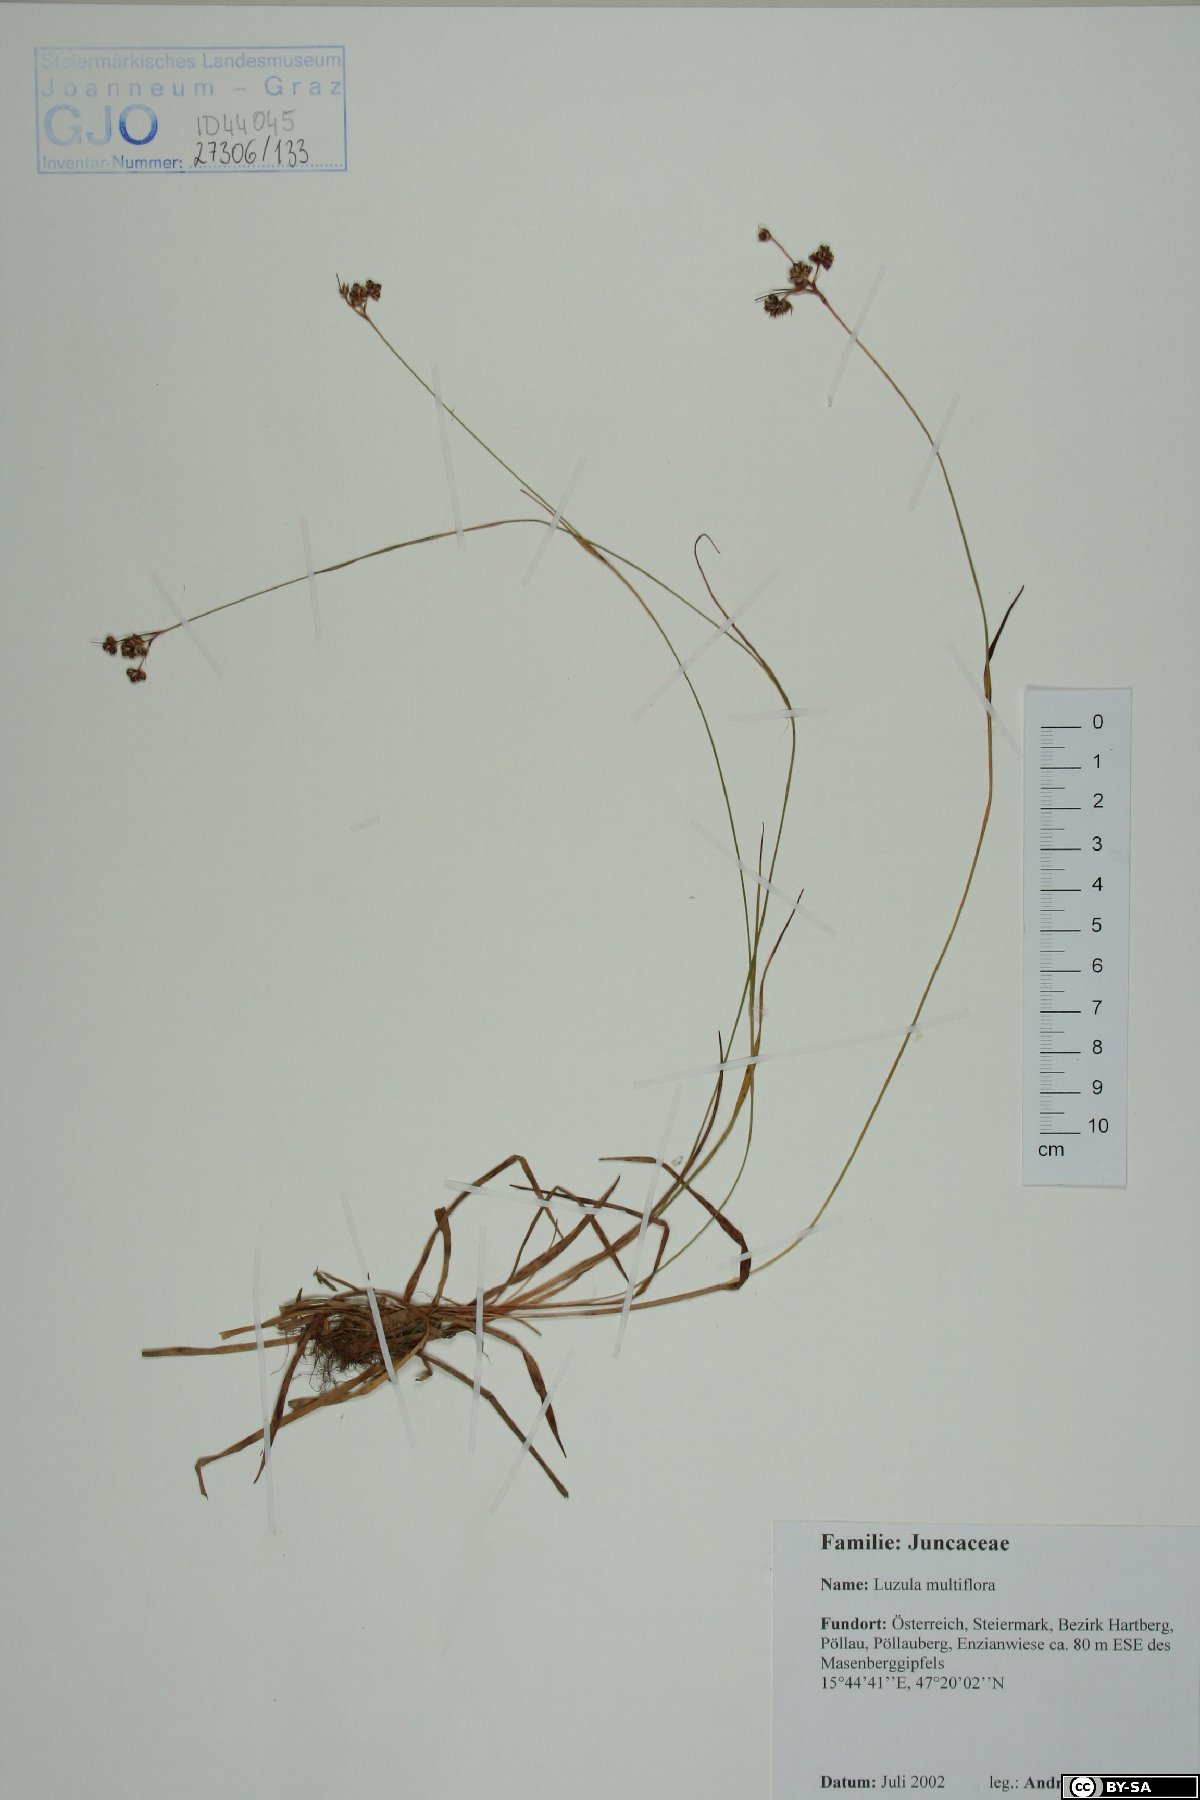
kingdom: Plantae
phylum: Tracheophyta
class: Liliopsida
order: Poales
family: Juncaceae
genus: Luzula
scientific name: Luzula multiflora
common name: Heath wood-rush
